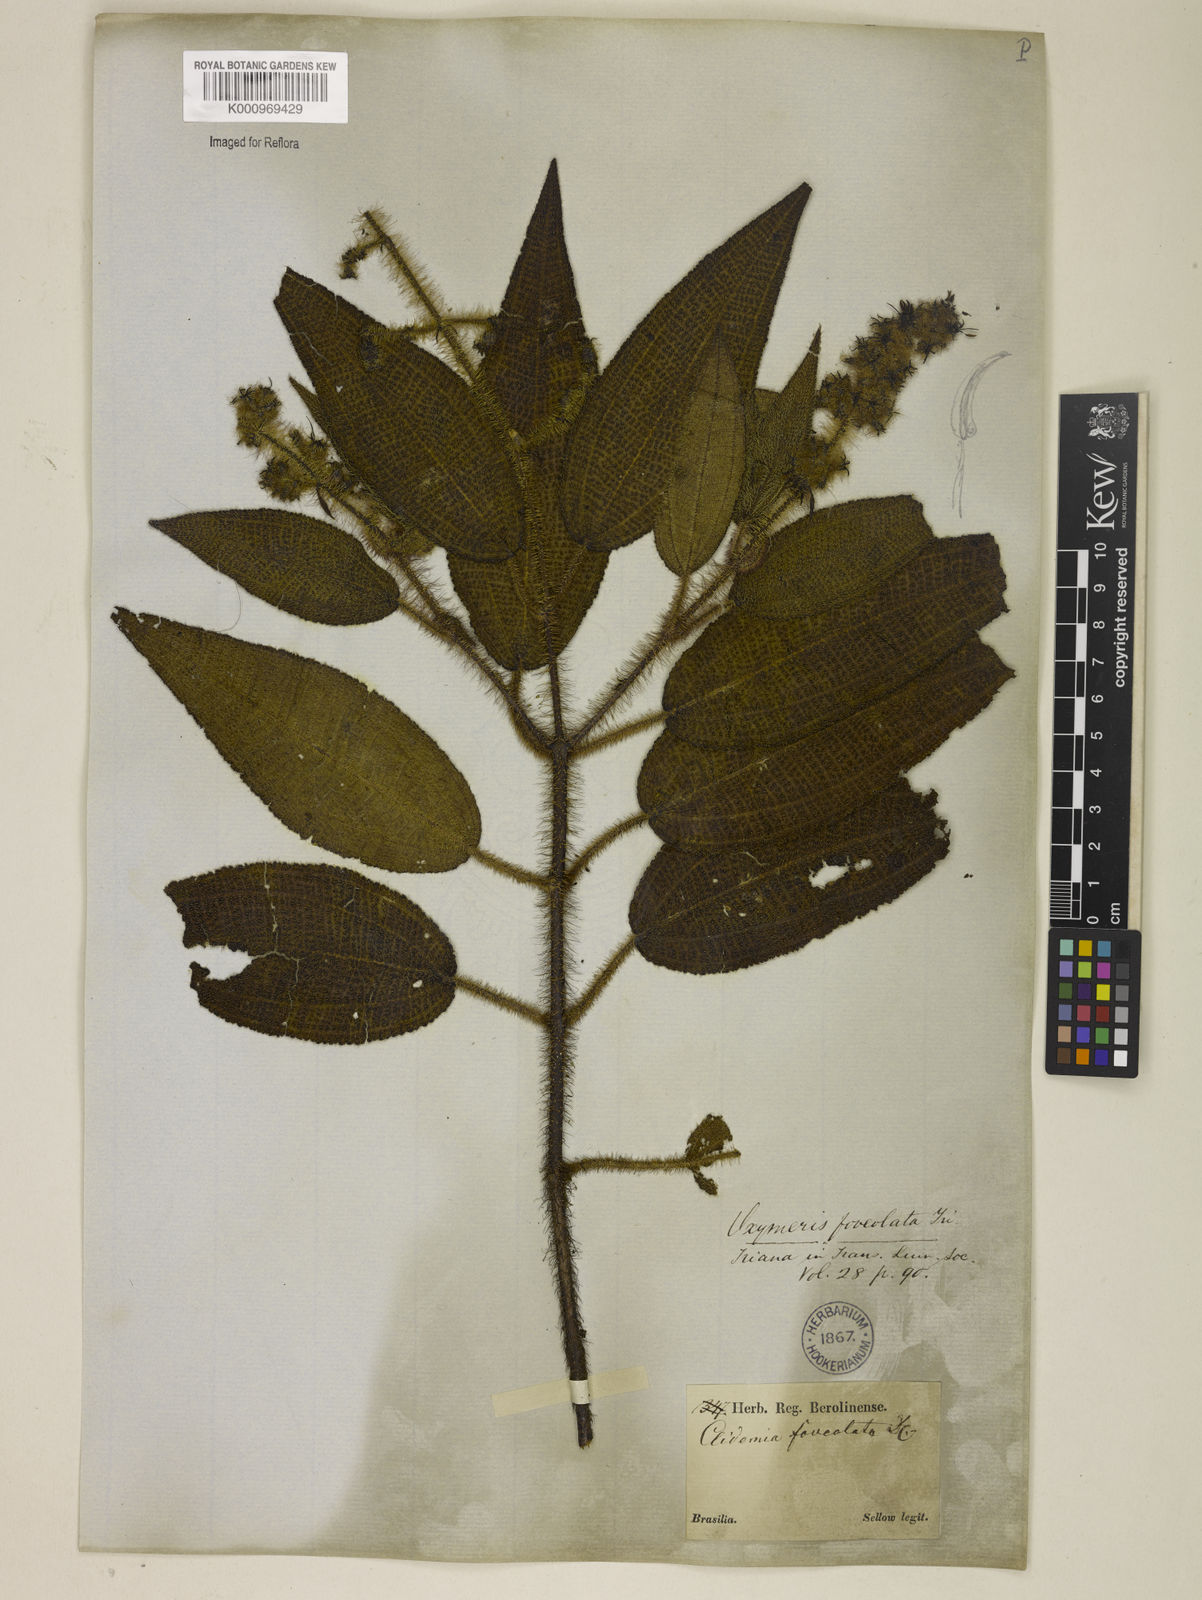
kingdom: Plantae
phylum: Tracheophyta
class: Magnoliopsida
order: Myrtales
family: Melastomataceae
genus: Miconia
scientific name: Miconia leafoveolata
